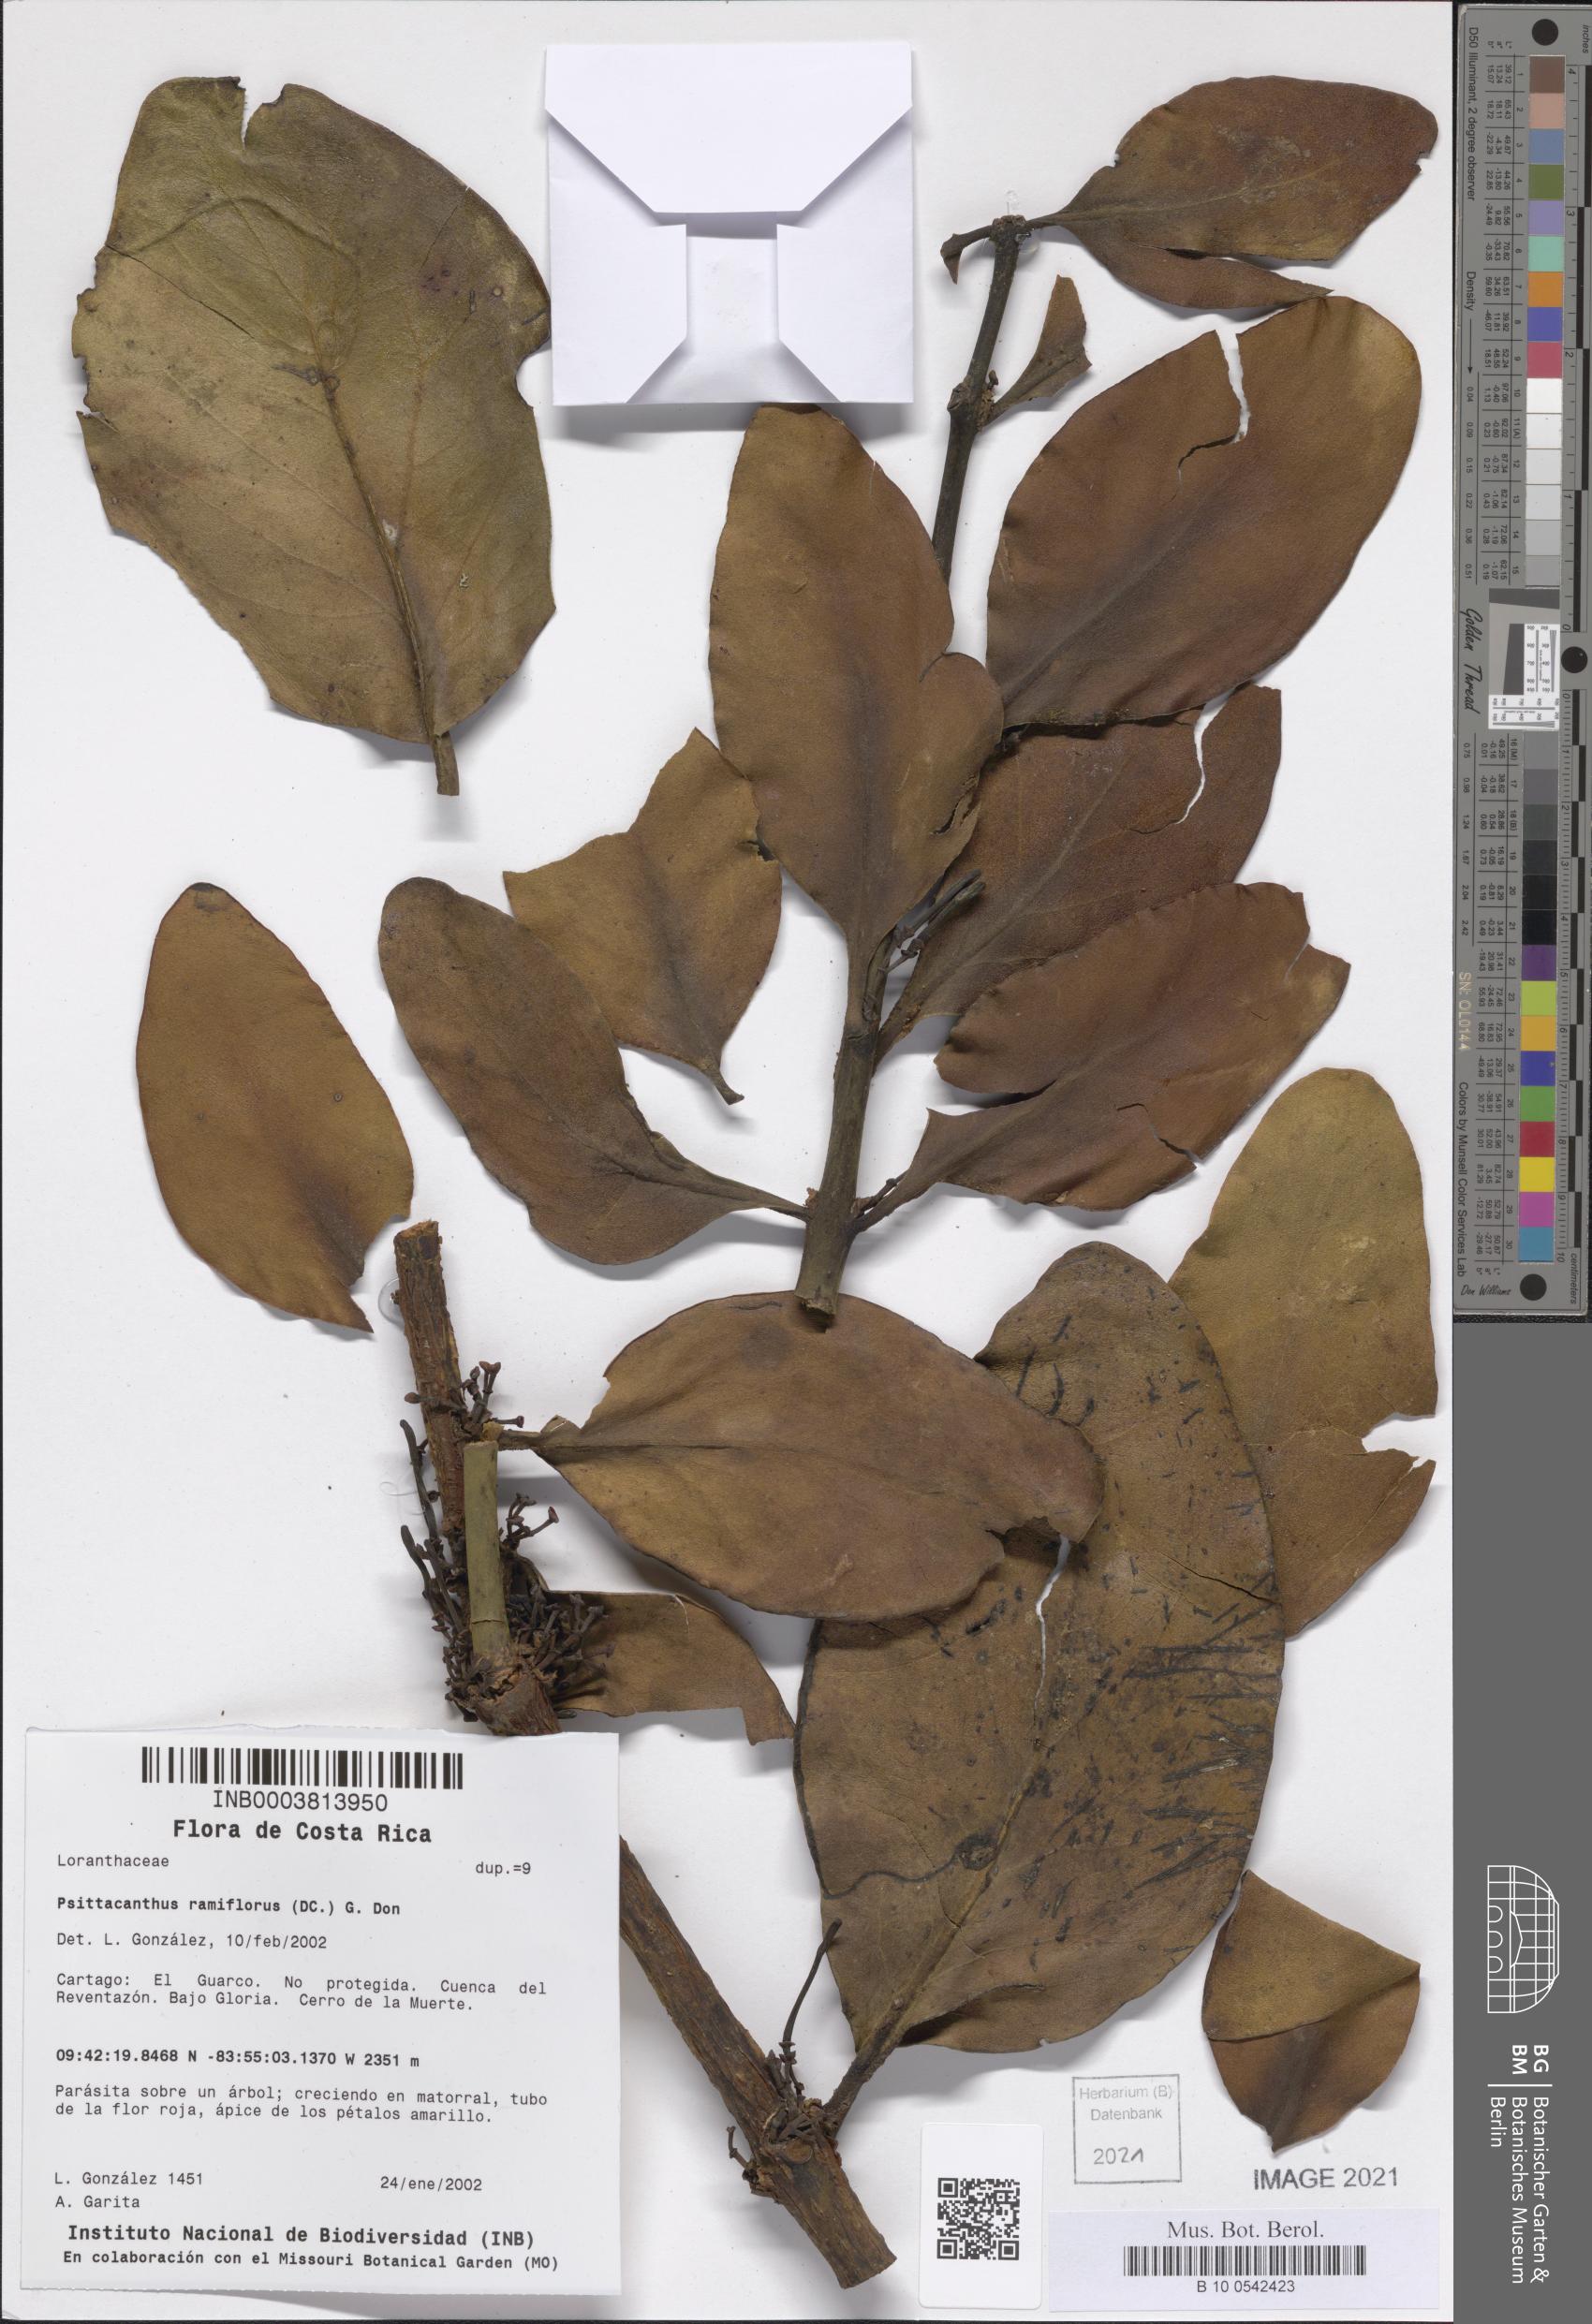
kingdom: Plantae
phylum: Tracheophyta
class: Magnoliopsida
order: Santalales
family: Loranthaceae
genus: Psittacanthus
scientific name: Psittacanthus ramiflorus
